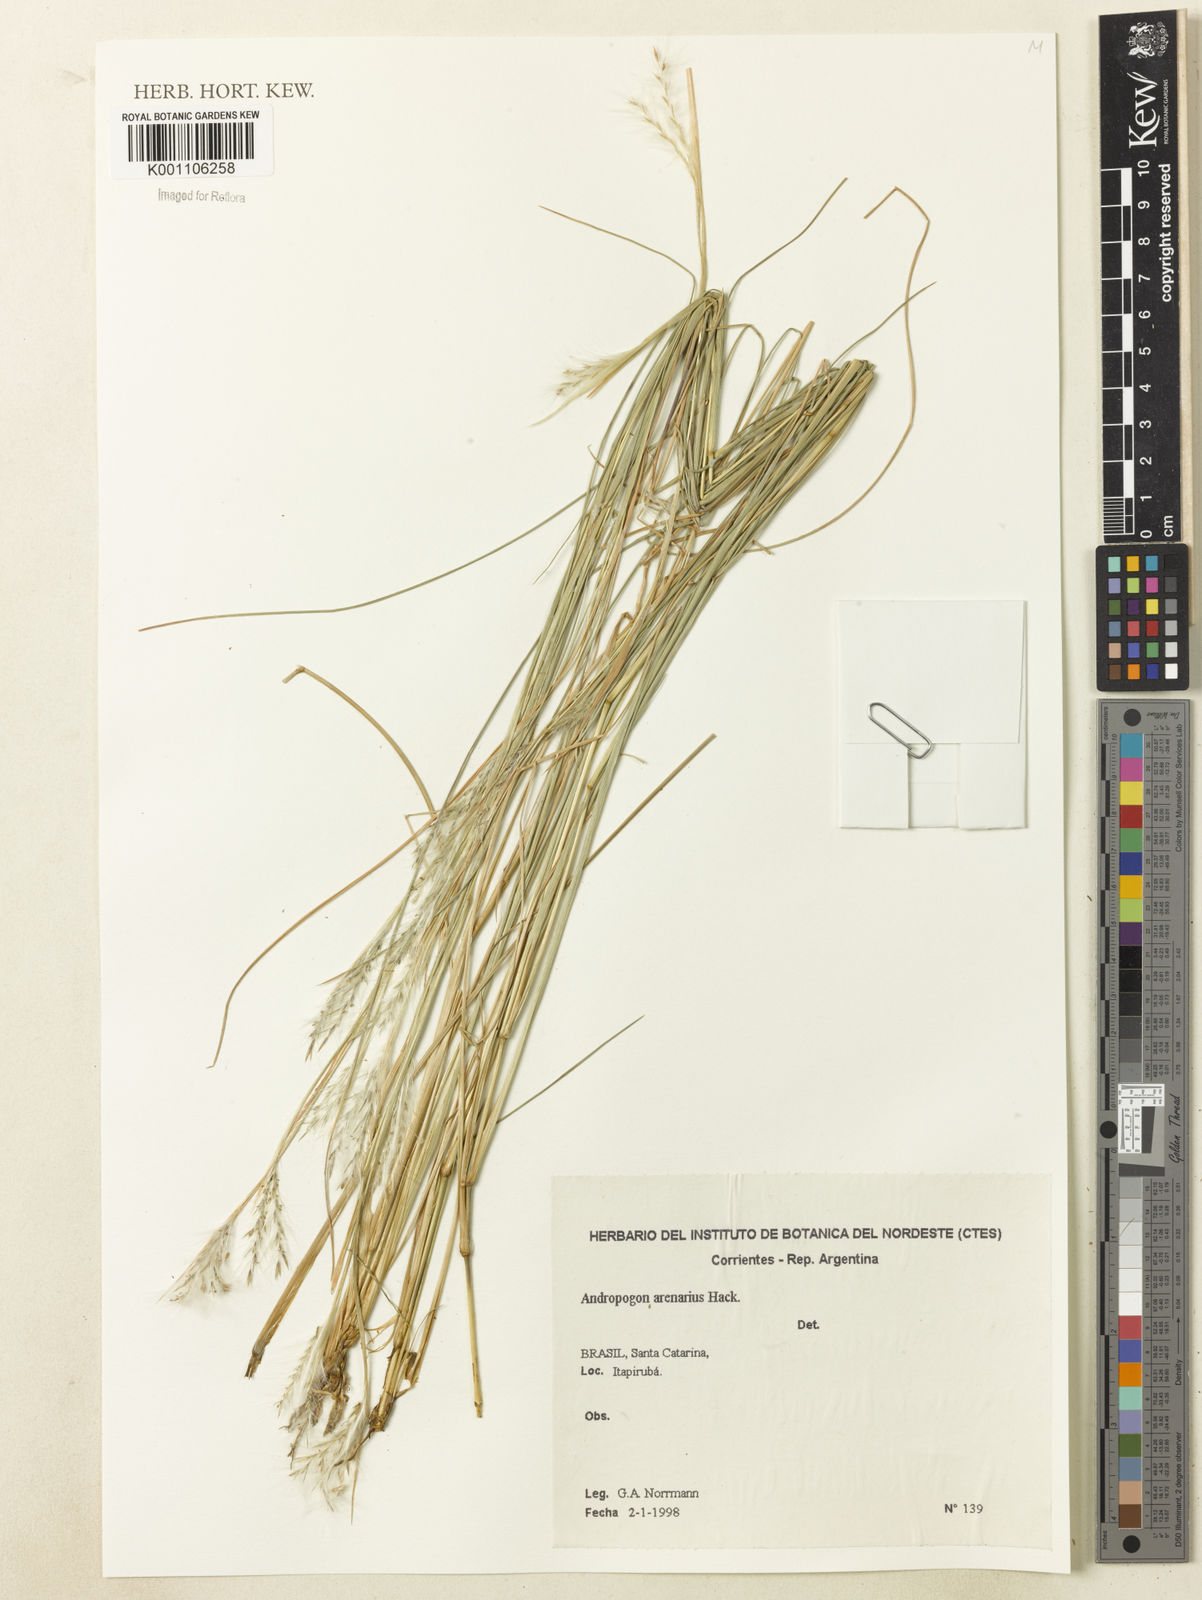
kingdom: Plantae
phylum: Tracheophyta
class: Liliopsida
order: Poales
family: Poaceae
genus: Andropogon
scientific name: Andropogon arenarius
